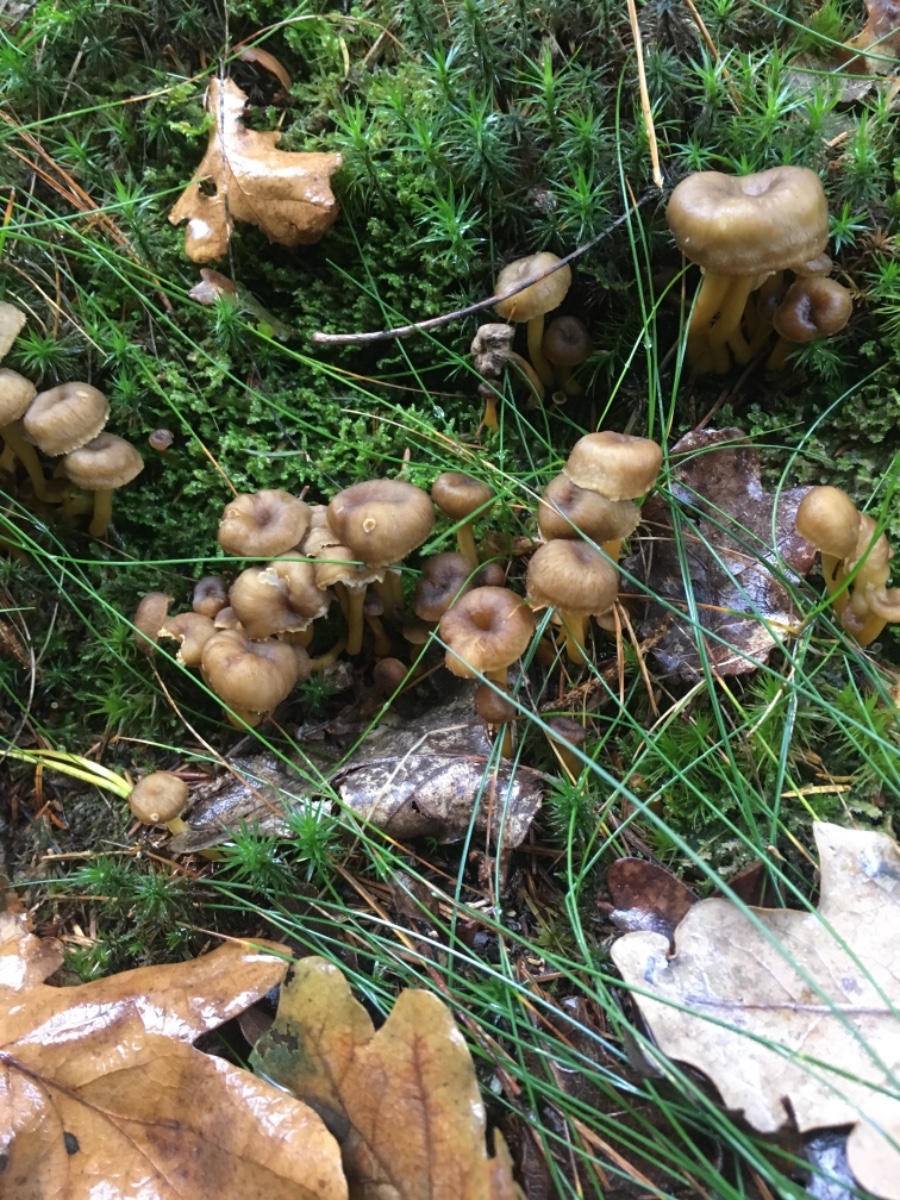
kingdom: Fungi
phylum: Basidiomycota
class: Agaricomycetes
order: Cantharellales
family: Hydnaceae
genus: Craterellus
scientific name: Craterellus tubaeformis
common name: tragt-kantarel
